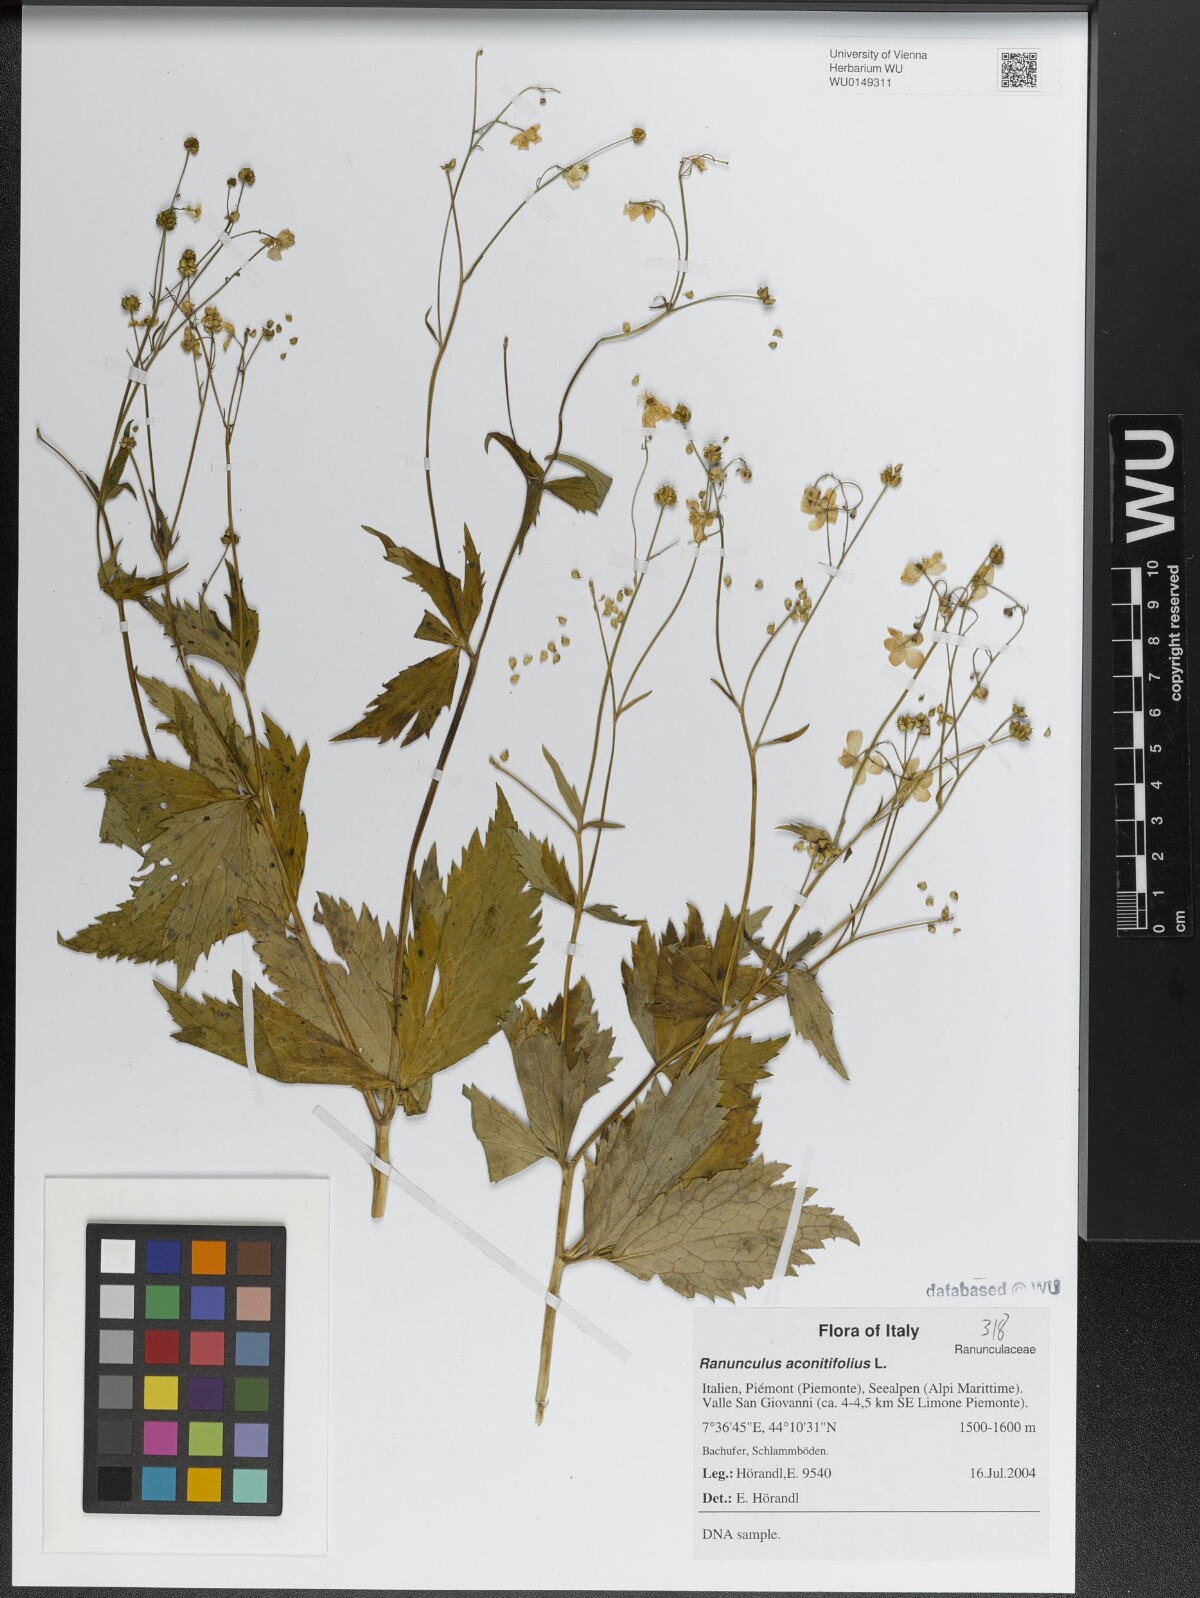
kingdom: Plantae
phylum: Tracheophyta
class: Magnoliopsida
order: Ranunculales
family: Ranunculaceae
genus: Ranunculus
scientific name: Ranunculus aconitifolius
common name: Aconite-leaved buttercup
